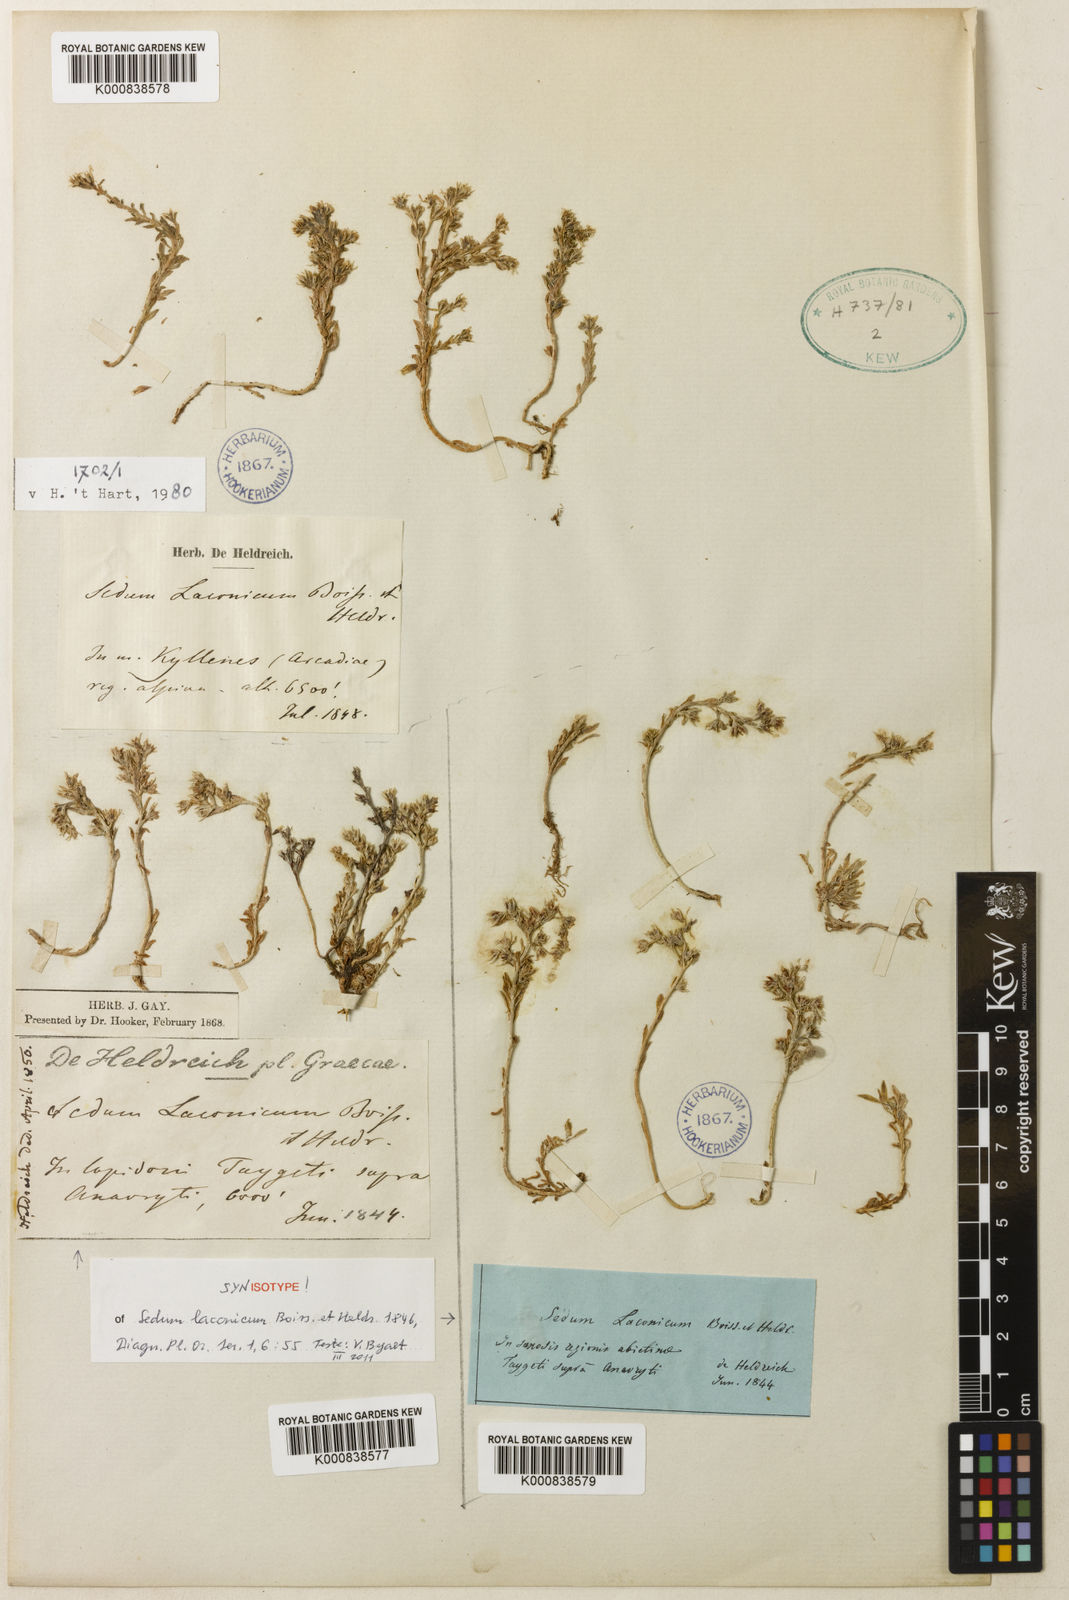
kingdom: Plantae
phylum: Tracheophyta
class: Magnoliopsida
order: Saxifragales
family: Crassulaceae
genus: Sedum
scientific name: Sedum laconicum
